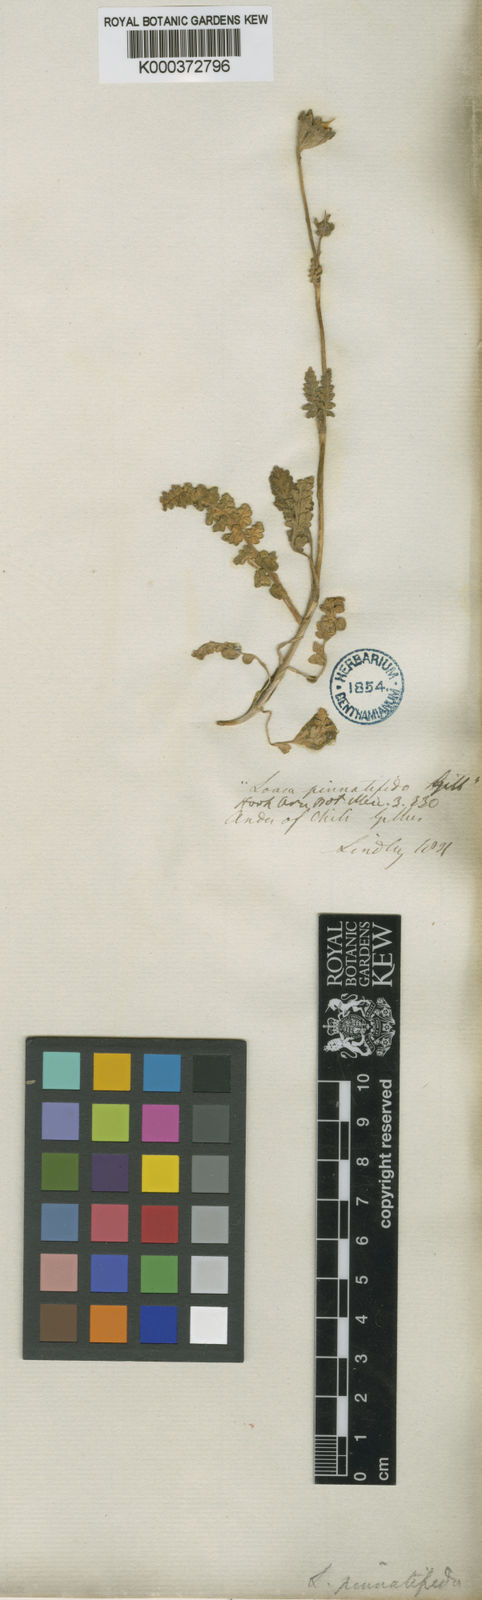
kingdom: Plantae
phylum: Tracheophyta
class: Magnoliopsida
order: Cornales
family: Loasaceae
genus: Pinnasa
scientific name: Pinnasa pinnatifida
